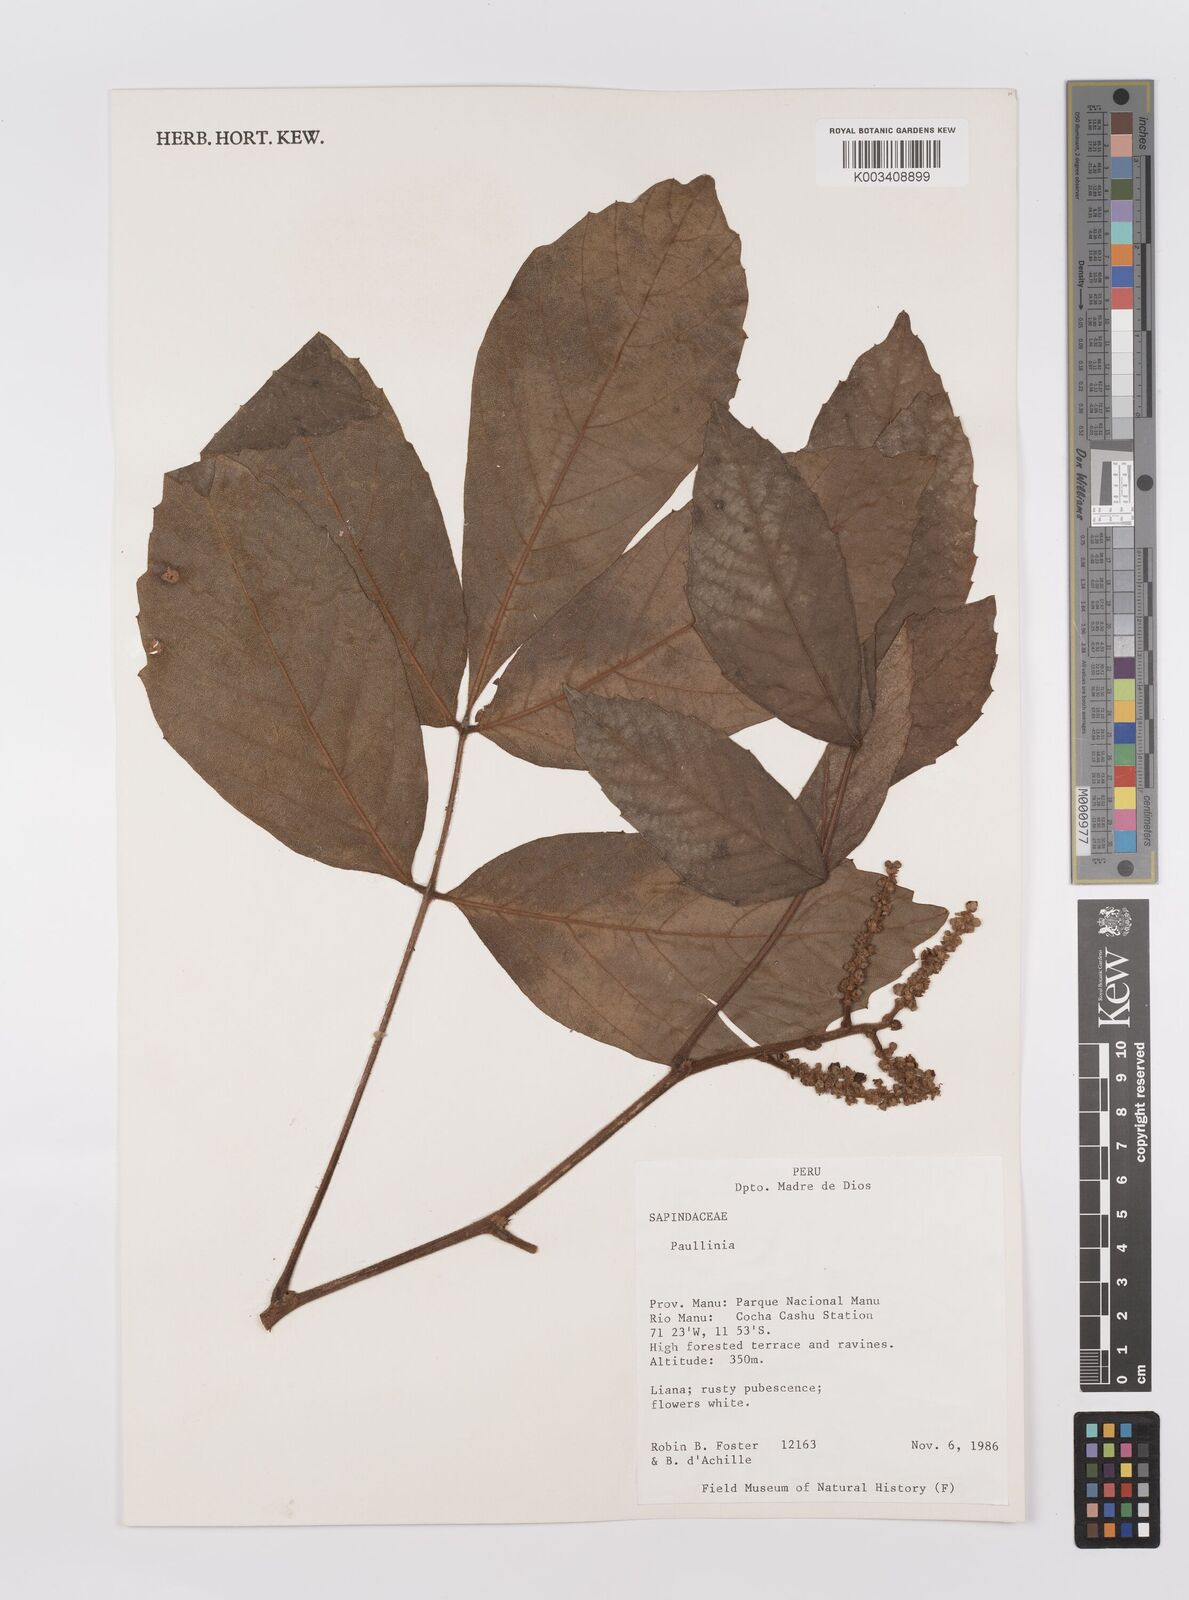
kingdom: Plantae
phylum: Tracheophyta
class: Magnoliopsida
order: Sapindales
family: Sapindaceae
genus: Paullinia
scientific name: Paullinia
